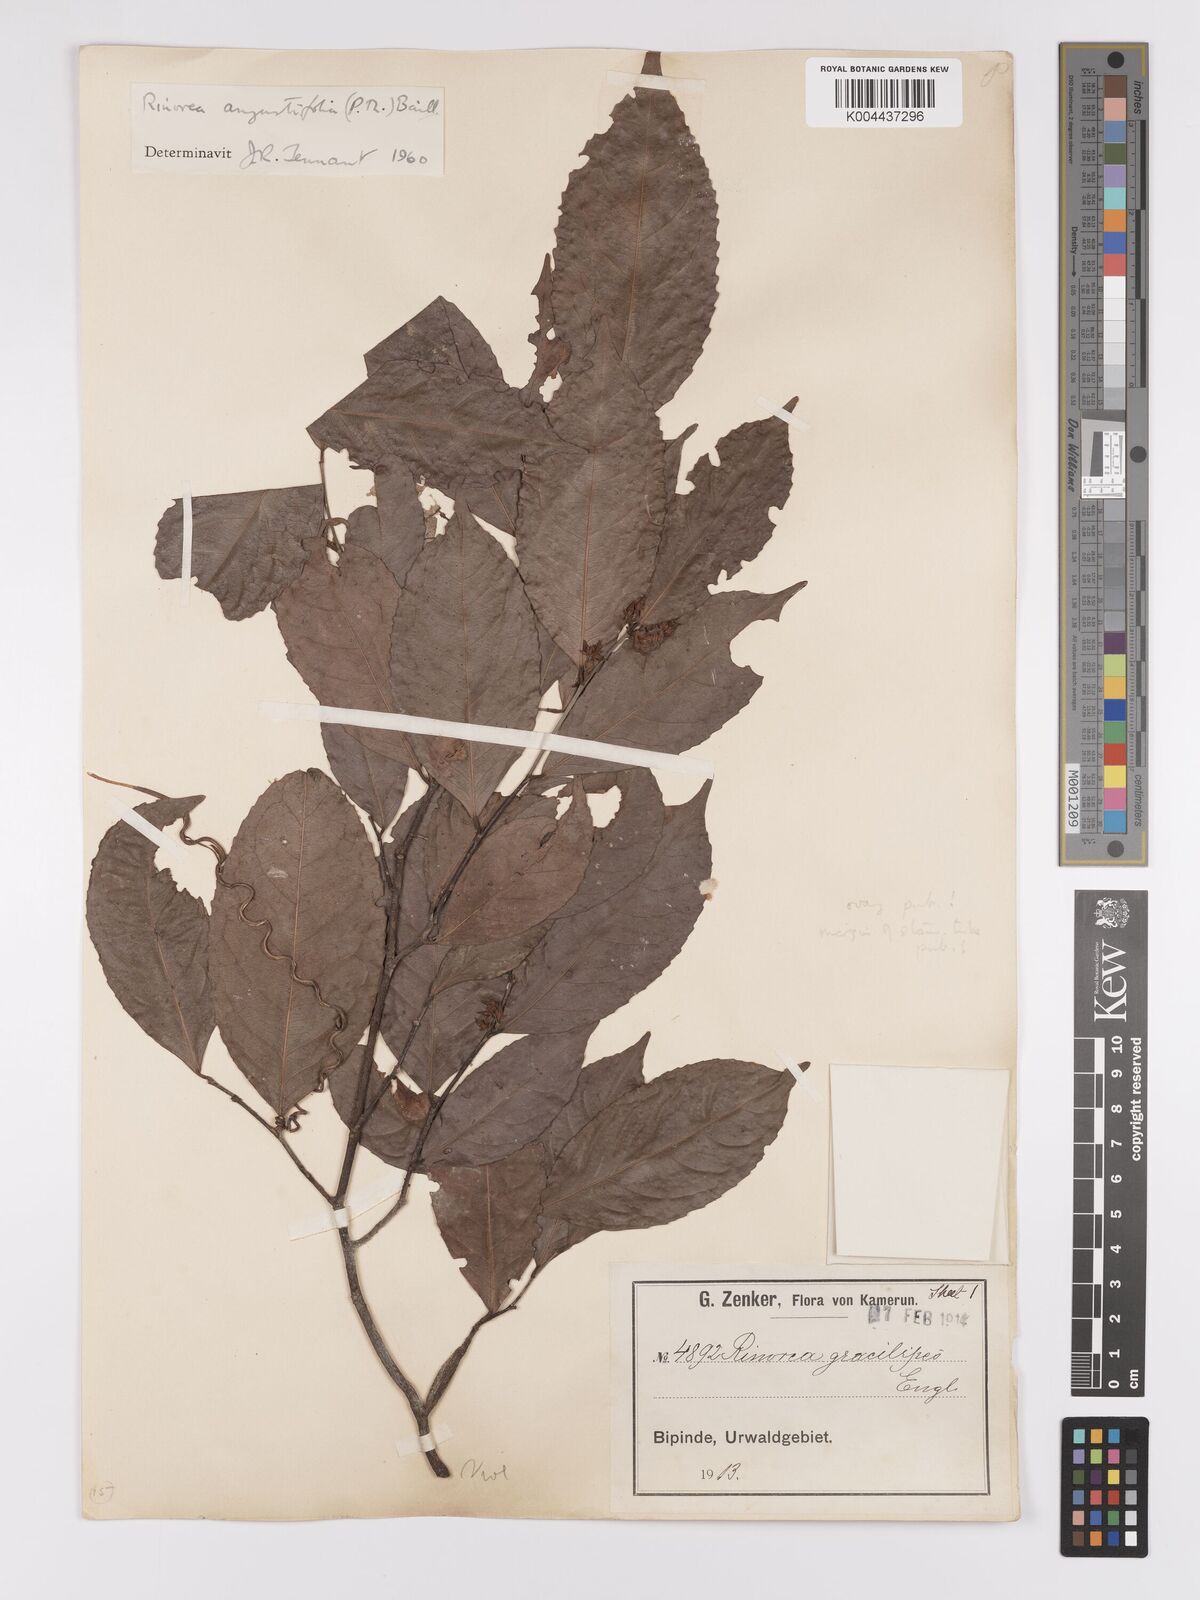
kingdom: Plantae
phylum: Tracheophyta
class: Magnoliopsida
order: Malpighiales
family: Violaceae
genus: Rinorea
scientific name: Rinorea angustifolia
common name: White violet-bush
